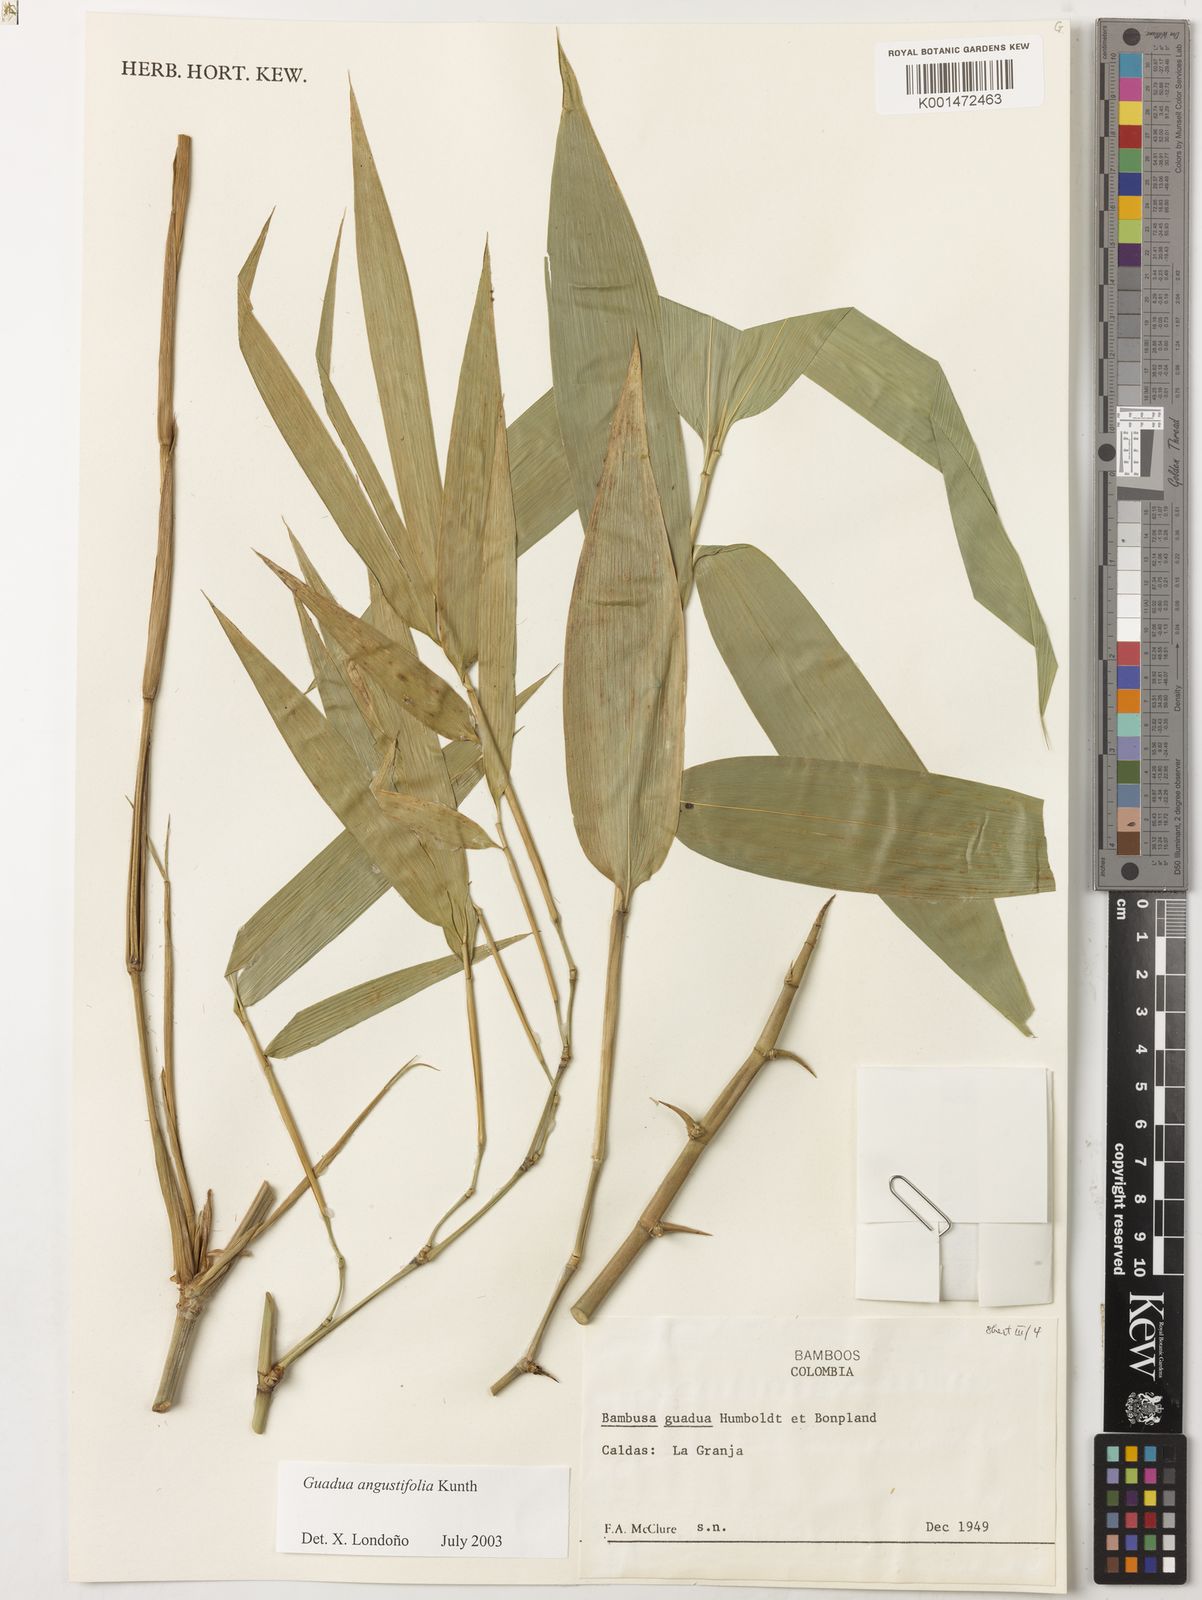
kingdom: Plantae
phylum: Tracheophyta
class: Liliopsida
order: Poales
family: Poaceae
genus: Guadua
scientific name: Guadua angustifolia
